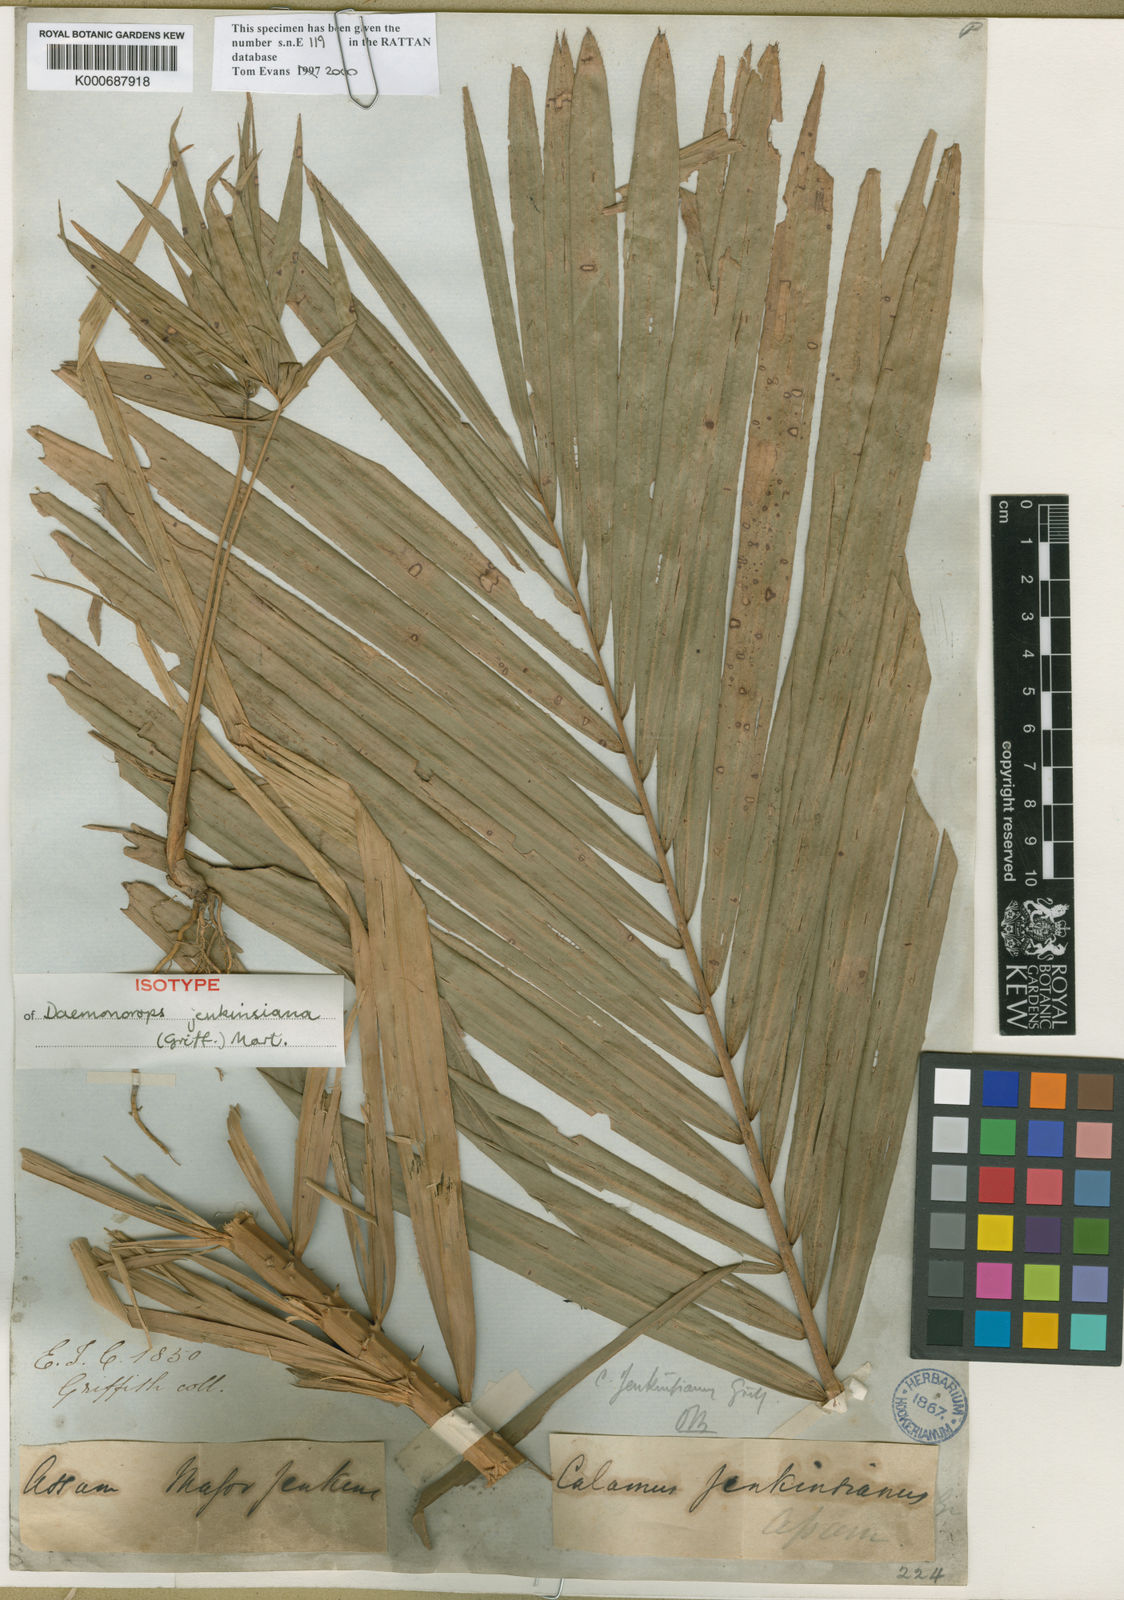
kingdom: Plantae
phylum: Tracheophyta
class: Liliopsida
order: Arecales
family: Arecaceae
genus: Calamus
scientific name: Calamus melanochaetes
